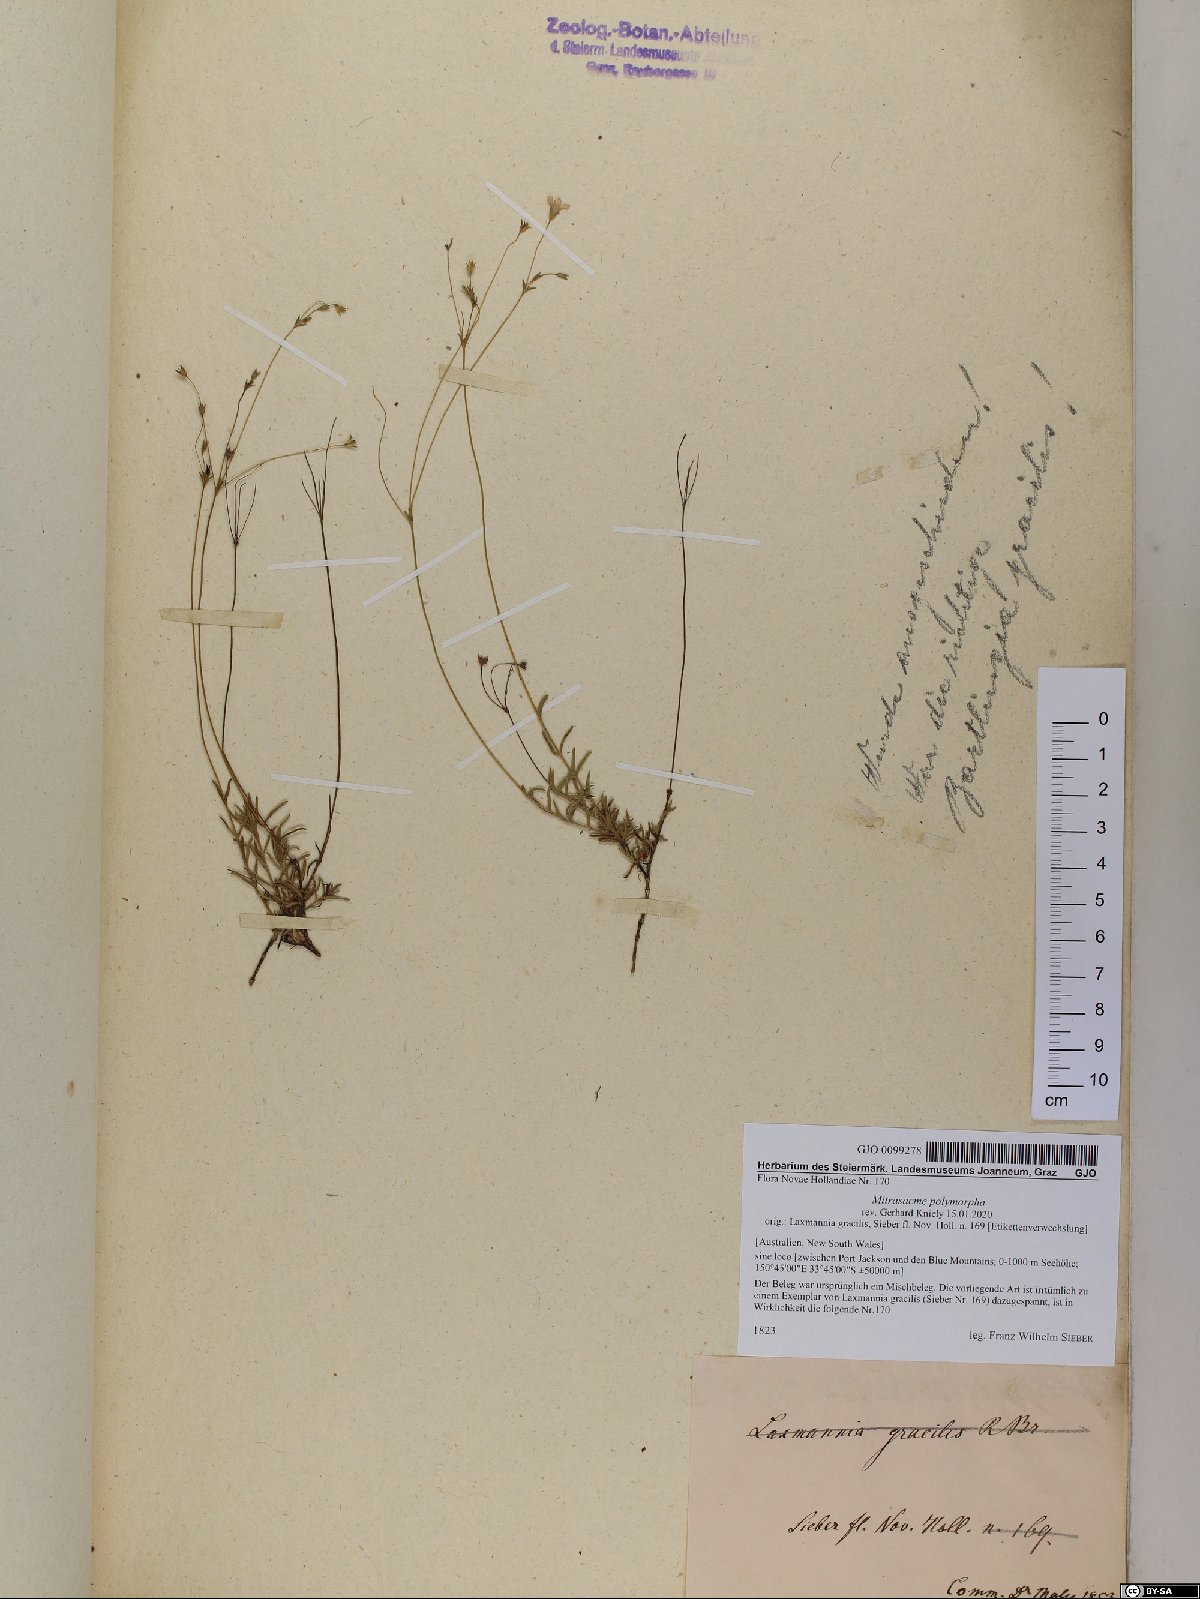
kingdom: Plantae
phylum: Tracheophyta
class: Magnoliopsida
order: Gentianales
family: Loganiaceae
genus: Mitrasacme
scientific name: Mitrasacme polymorpha
